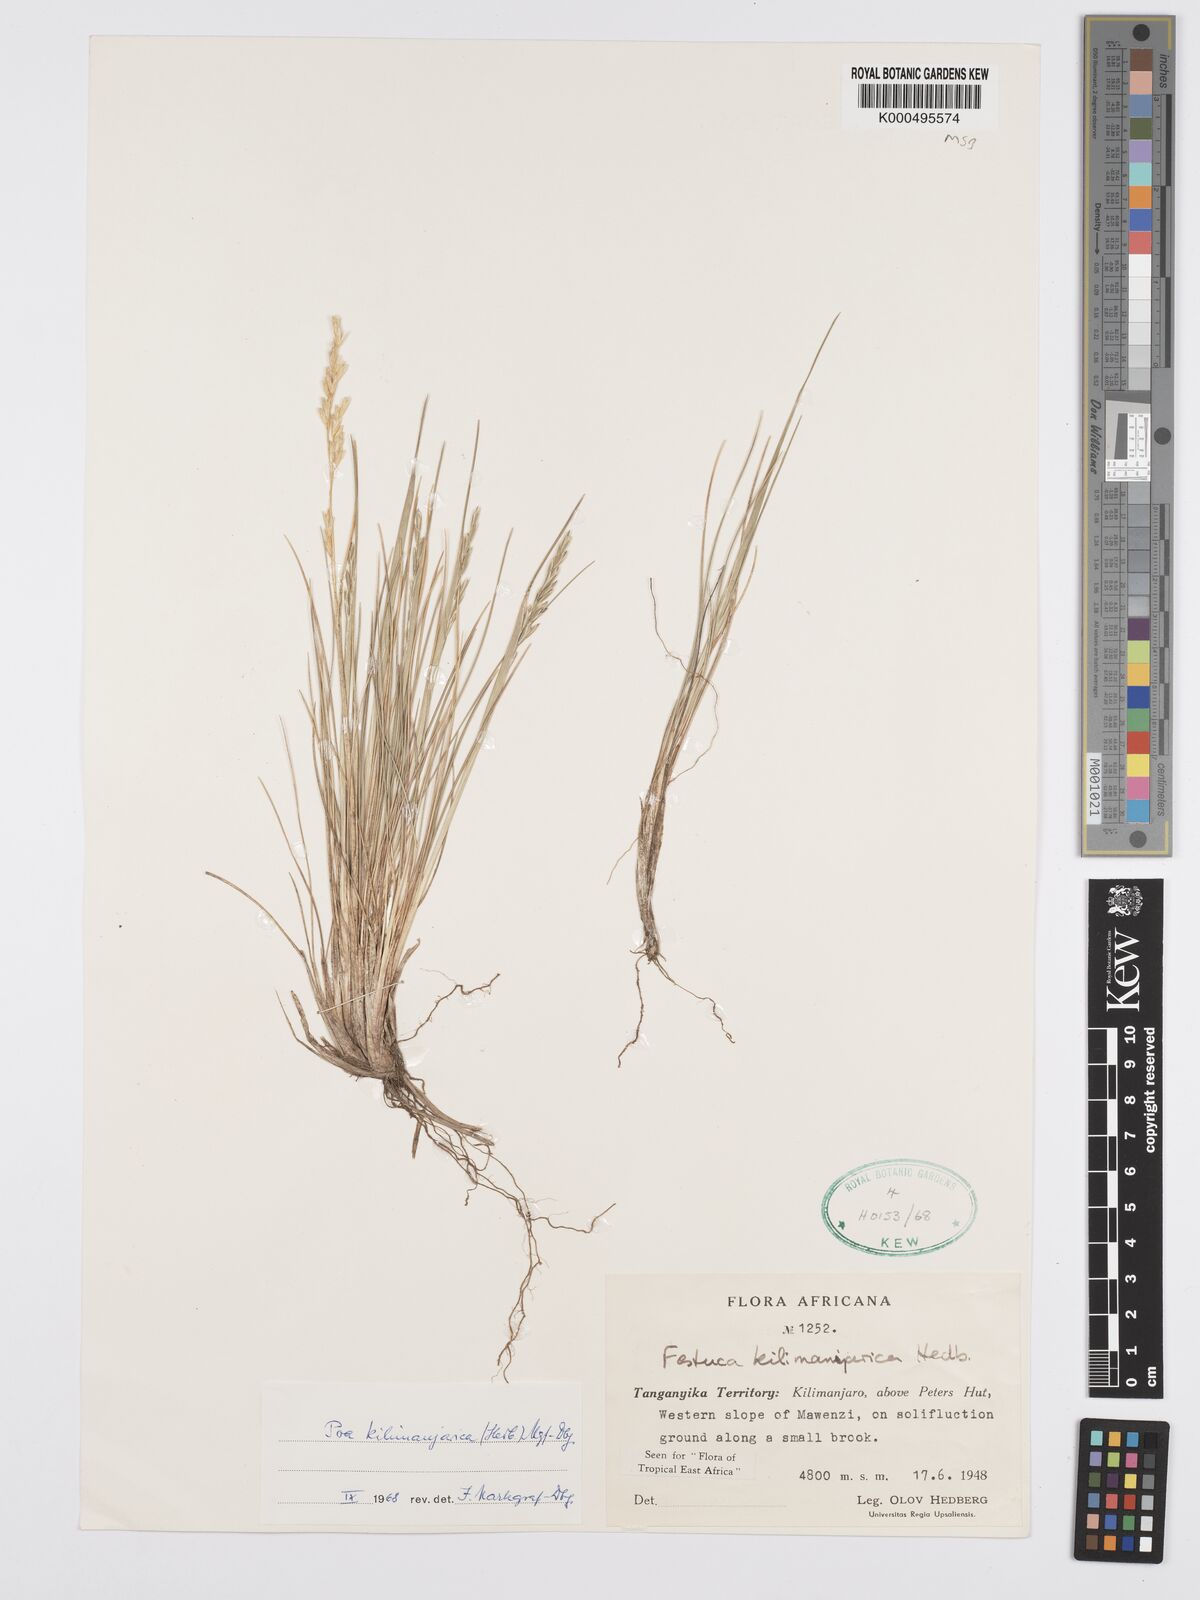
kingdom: Plantae
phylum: Tracheophyta
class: Liliopsida
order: Poales
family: Poaceae
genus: Poa
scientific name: Poa kilimanjarica
